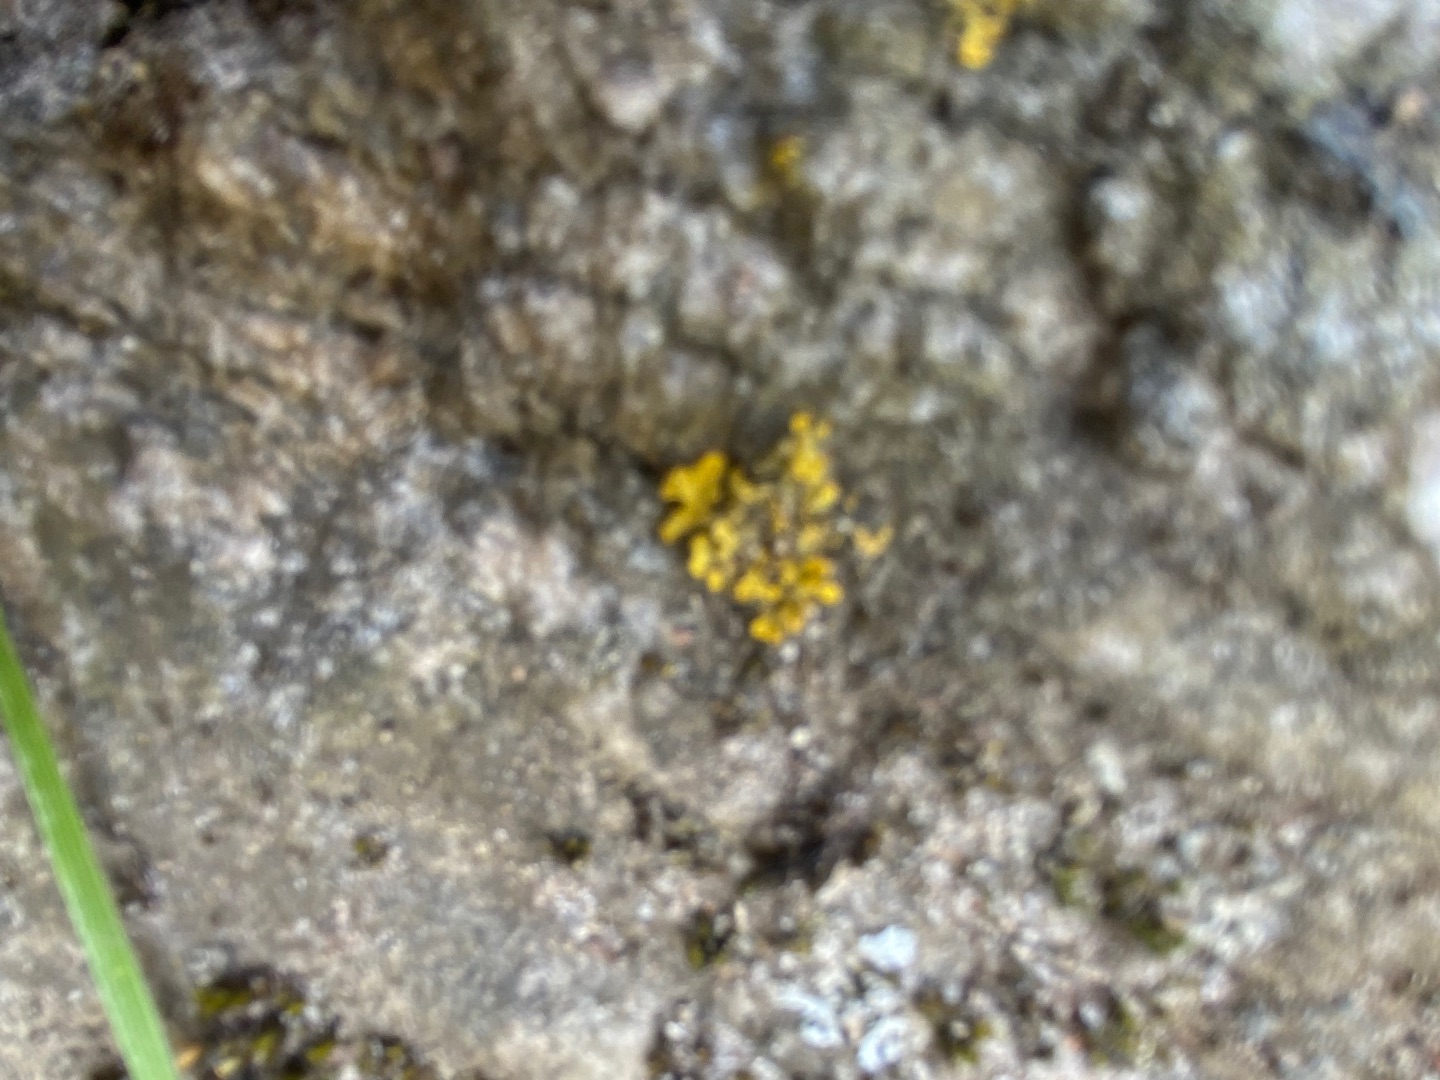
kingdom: Fungi
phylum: Ascomycota
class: Lecanoromycetes
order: Teloschistales
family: Teloschistaceae
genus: Xanthoria
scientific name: Xanthoria parietina
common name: Almindelig væggelav
